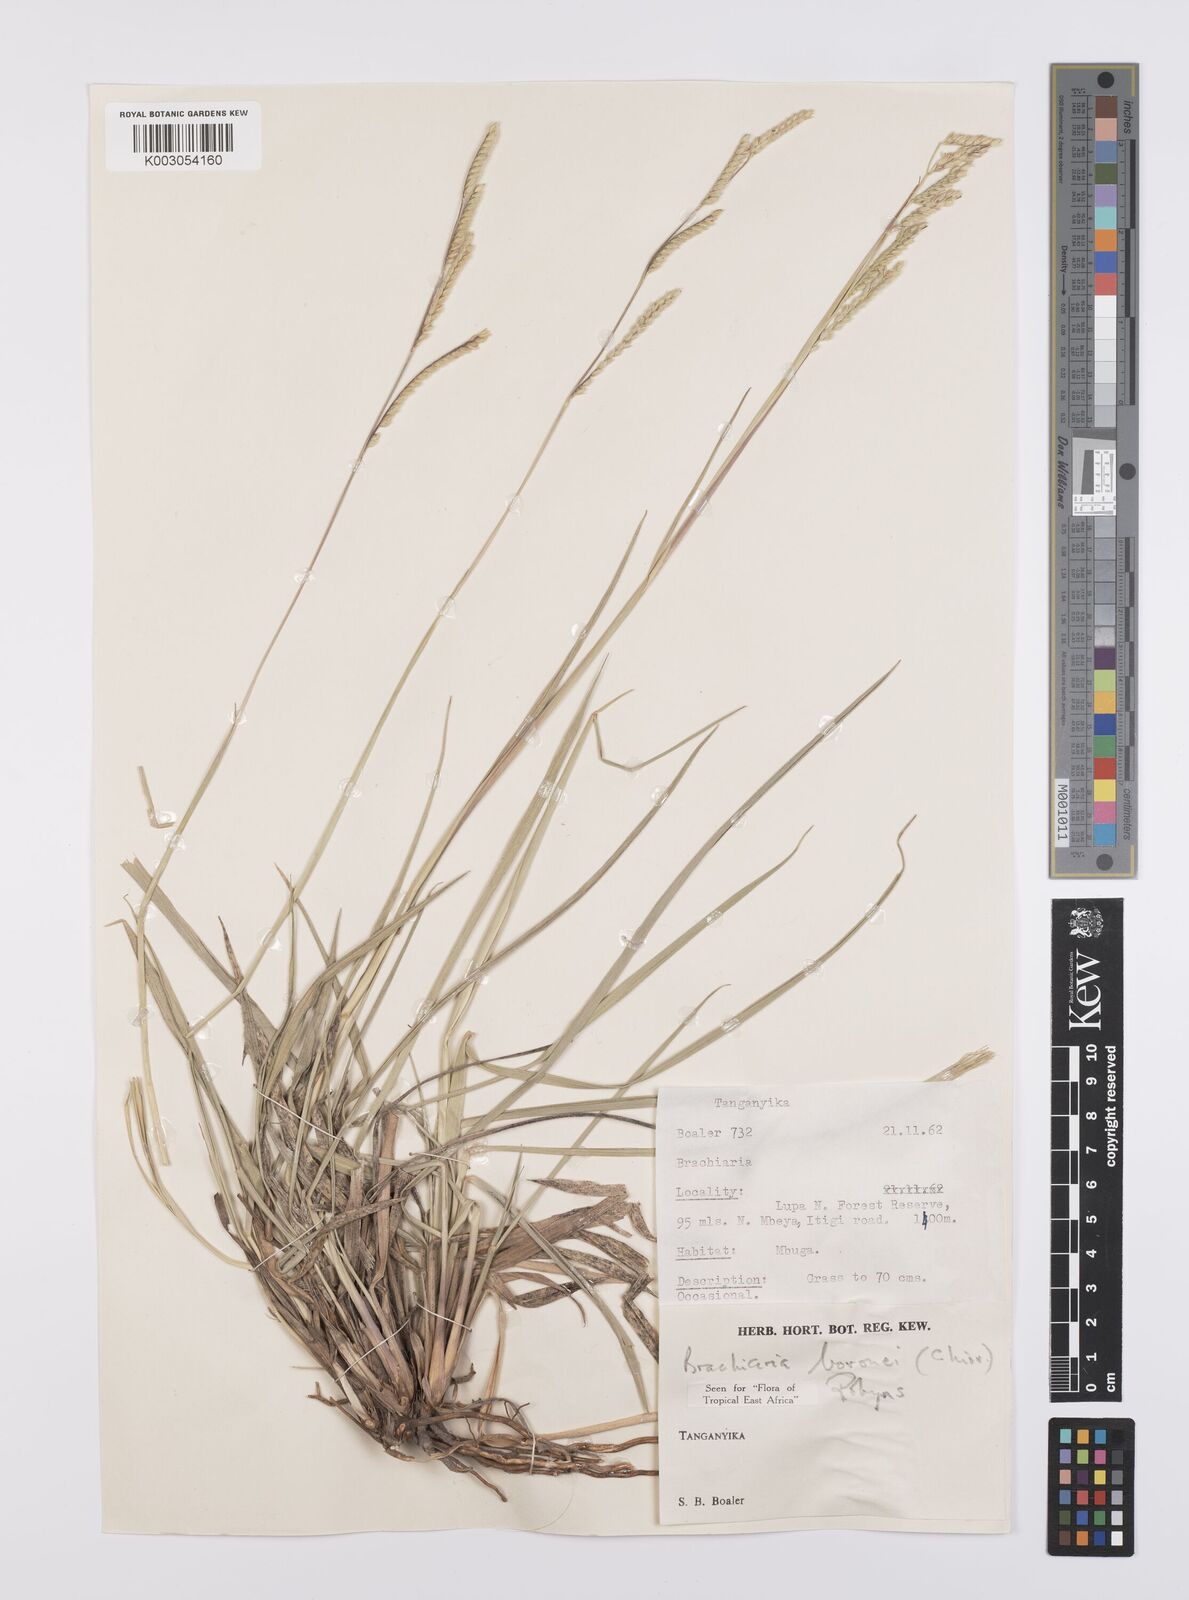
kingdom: Plantae
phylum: Tracheophyta
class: Liliopsida
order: Poales
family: Poaceae
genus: Urochloa
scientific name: Urochloa bovonei
